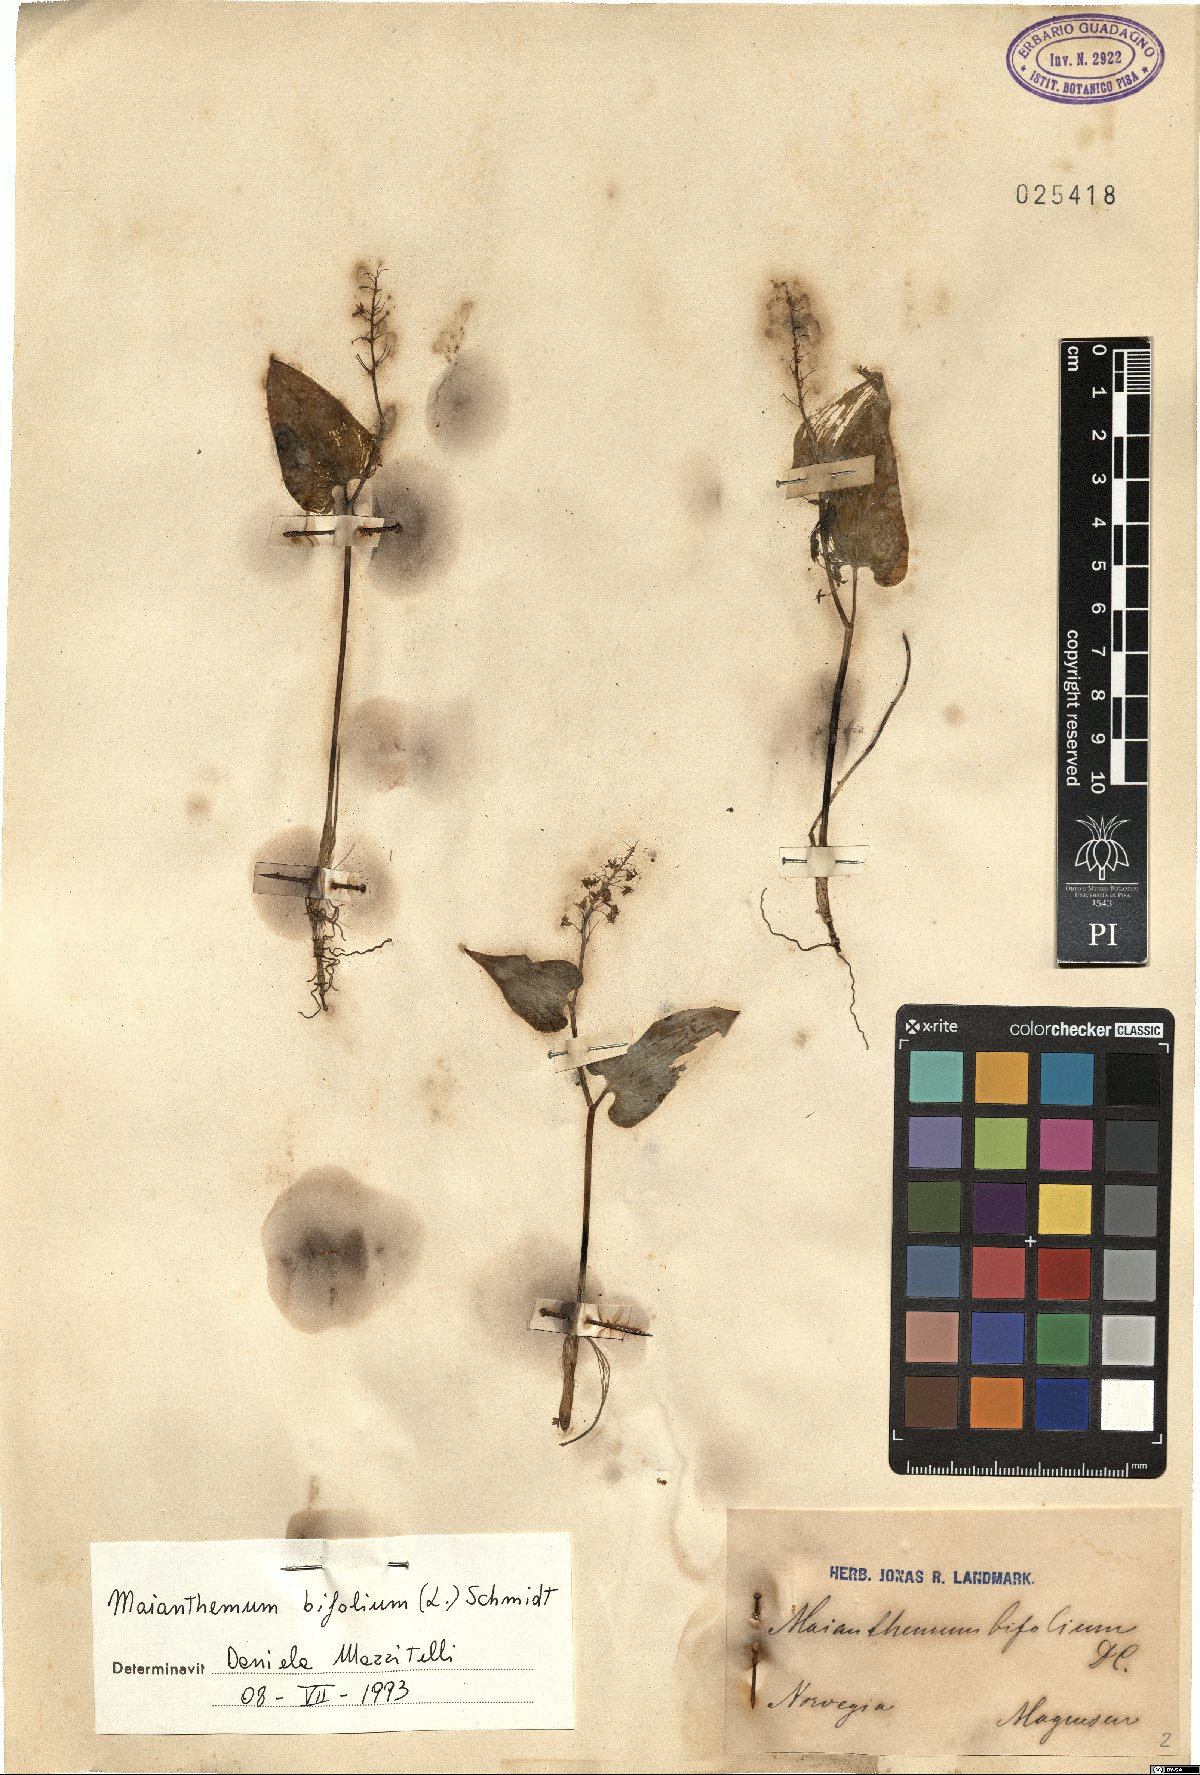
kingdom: Plantae
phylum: Tracheophyta
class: Liliopsida
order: Asparagales
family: Asparagaceae
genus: Maianthemum
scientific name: Maianthemum bifolium
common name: May lily
